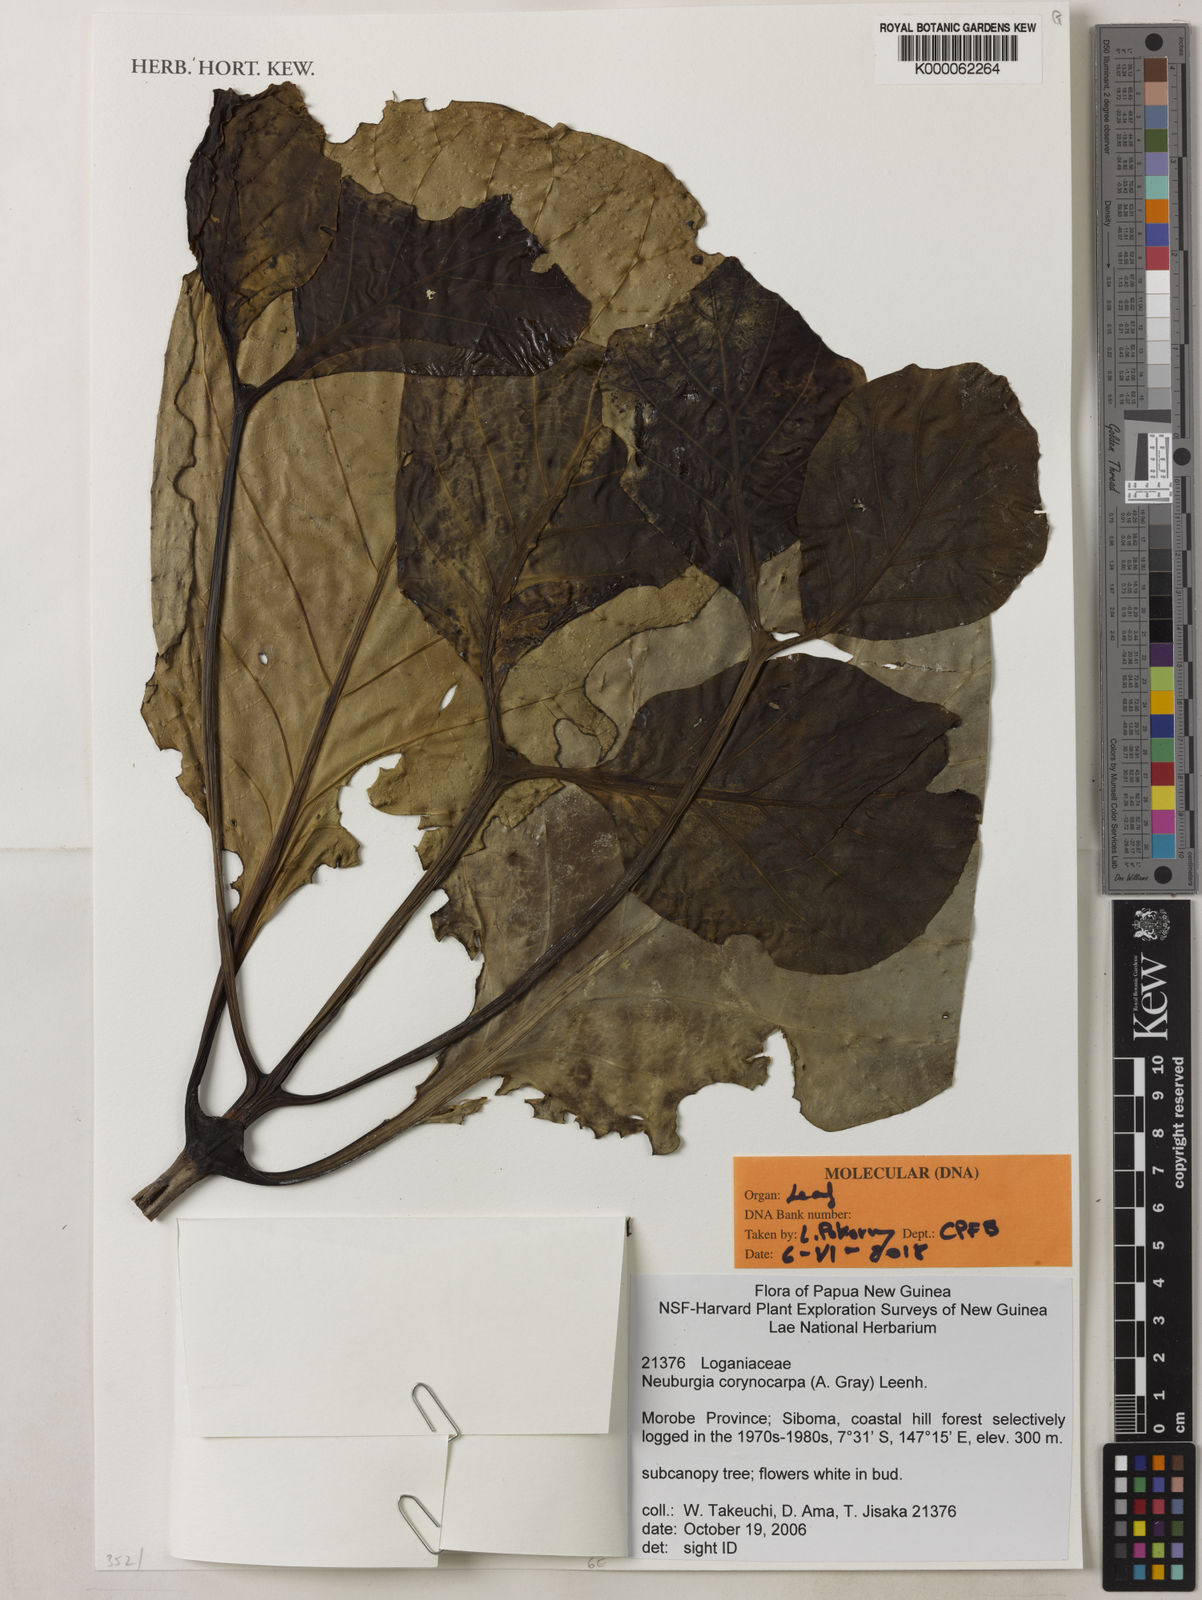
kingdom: Plantae
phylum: Tracheophyta
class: Magnoliopsida
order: Gentianales
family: Loganiaceae
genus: Neuburgia
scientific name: Neuburgia corynocarpa
